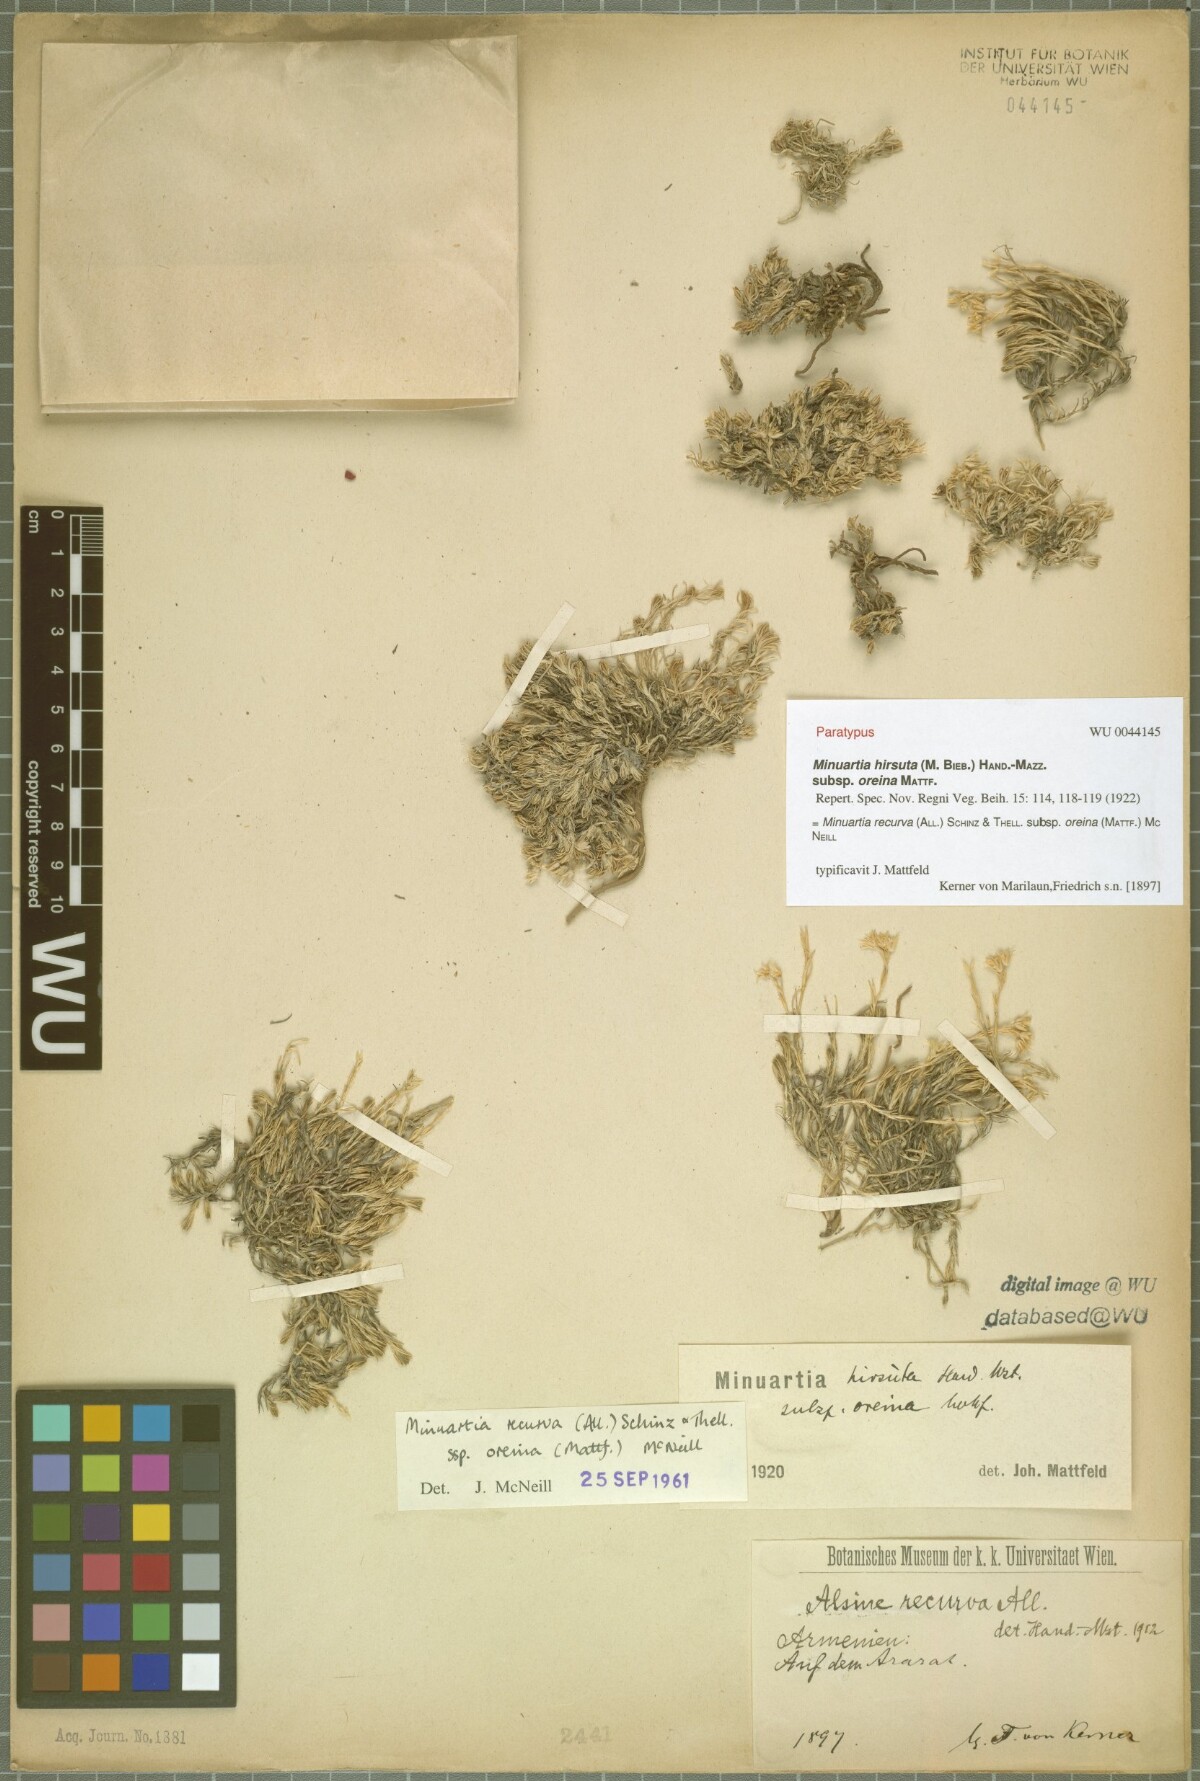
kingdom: Plantae
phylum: Tracheophyta
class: Magnoliopsida
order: Caryophyllales
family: Caryophyllaceae
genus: Minuartia
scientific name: Minuartia hirsuta
